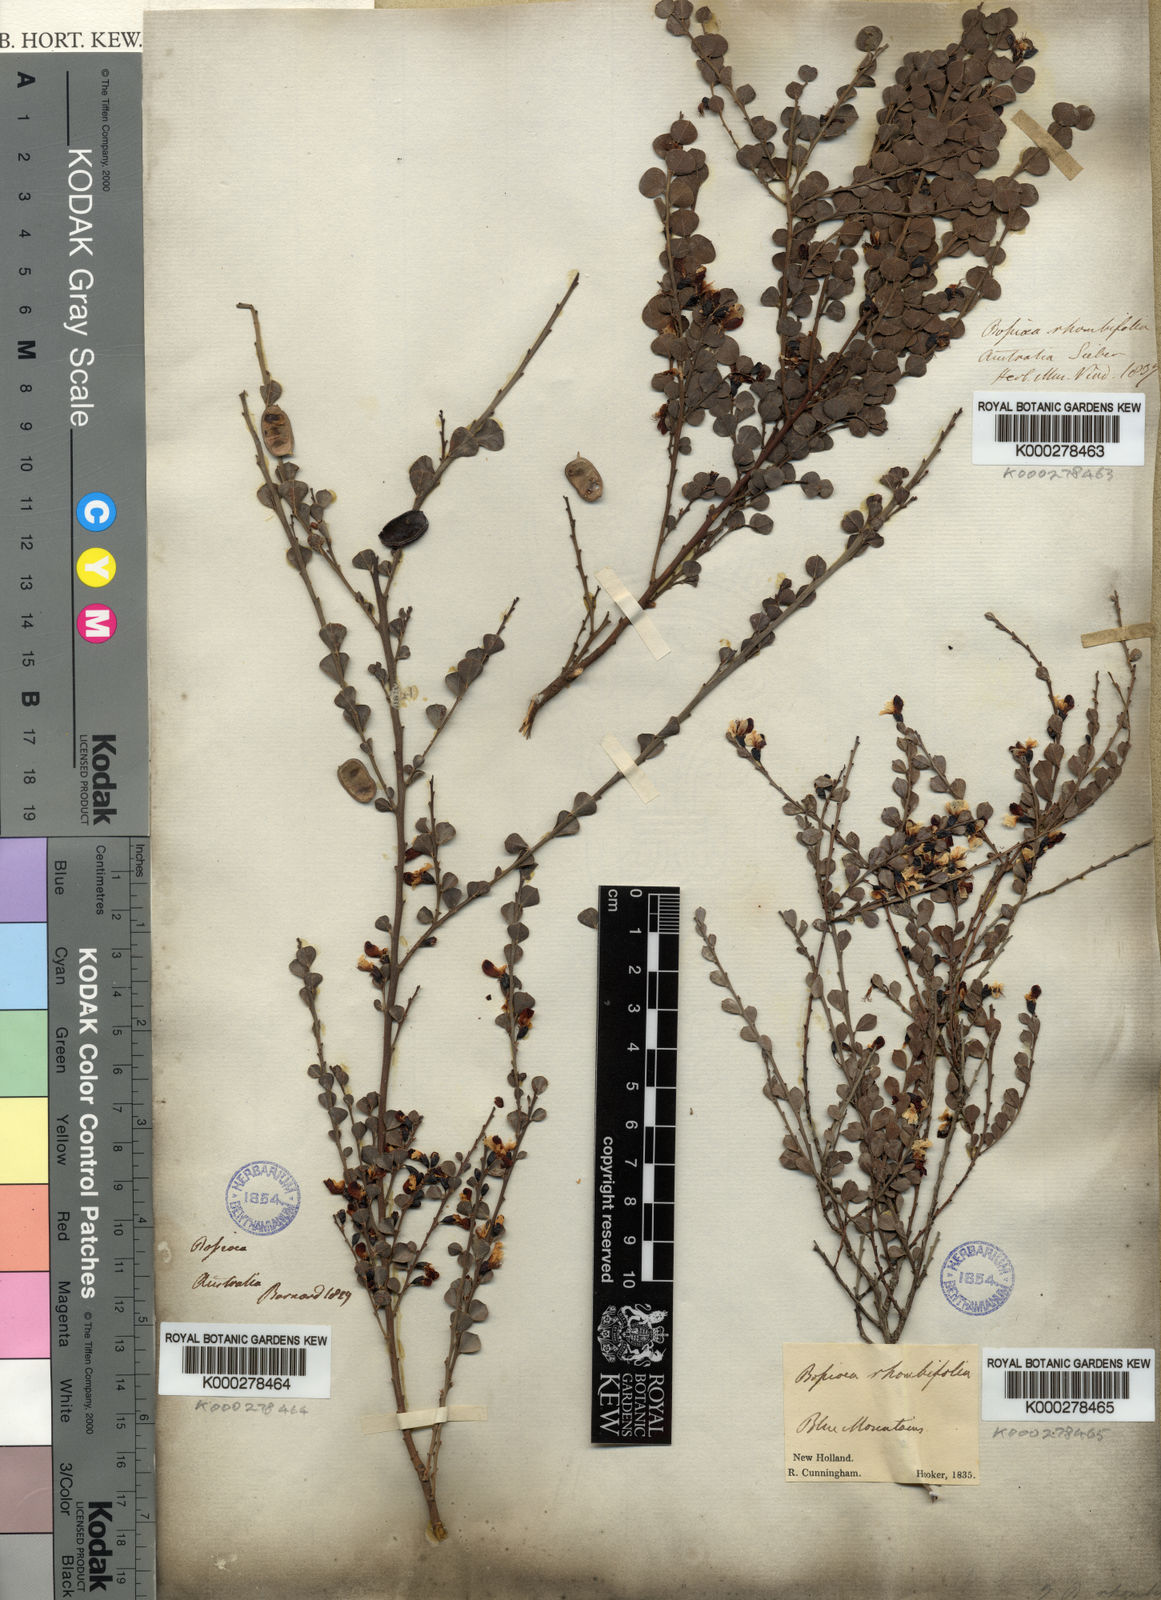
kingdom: Plantae
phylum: Tracheophyta
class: Magnoliopsida
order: Fabales
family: Fabaceae
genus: Bossiaea
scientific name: Bossiaea rhombifolia
